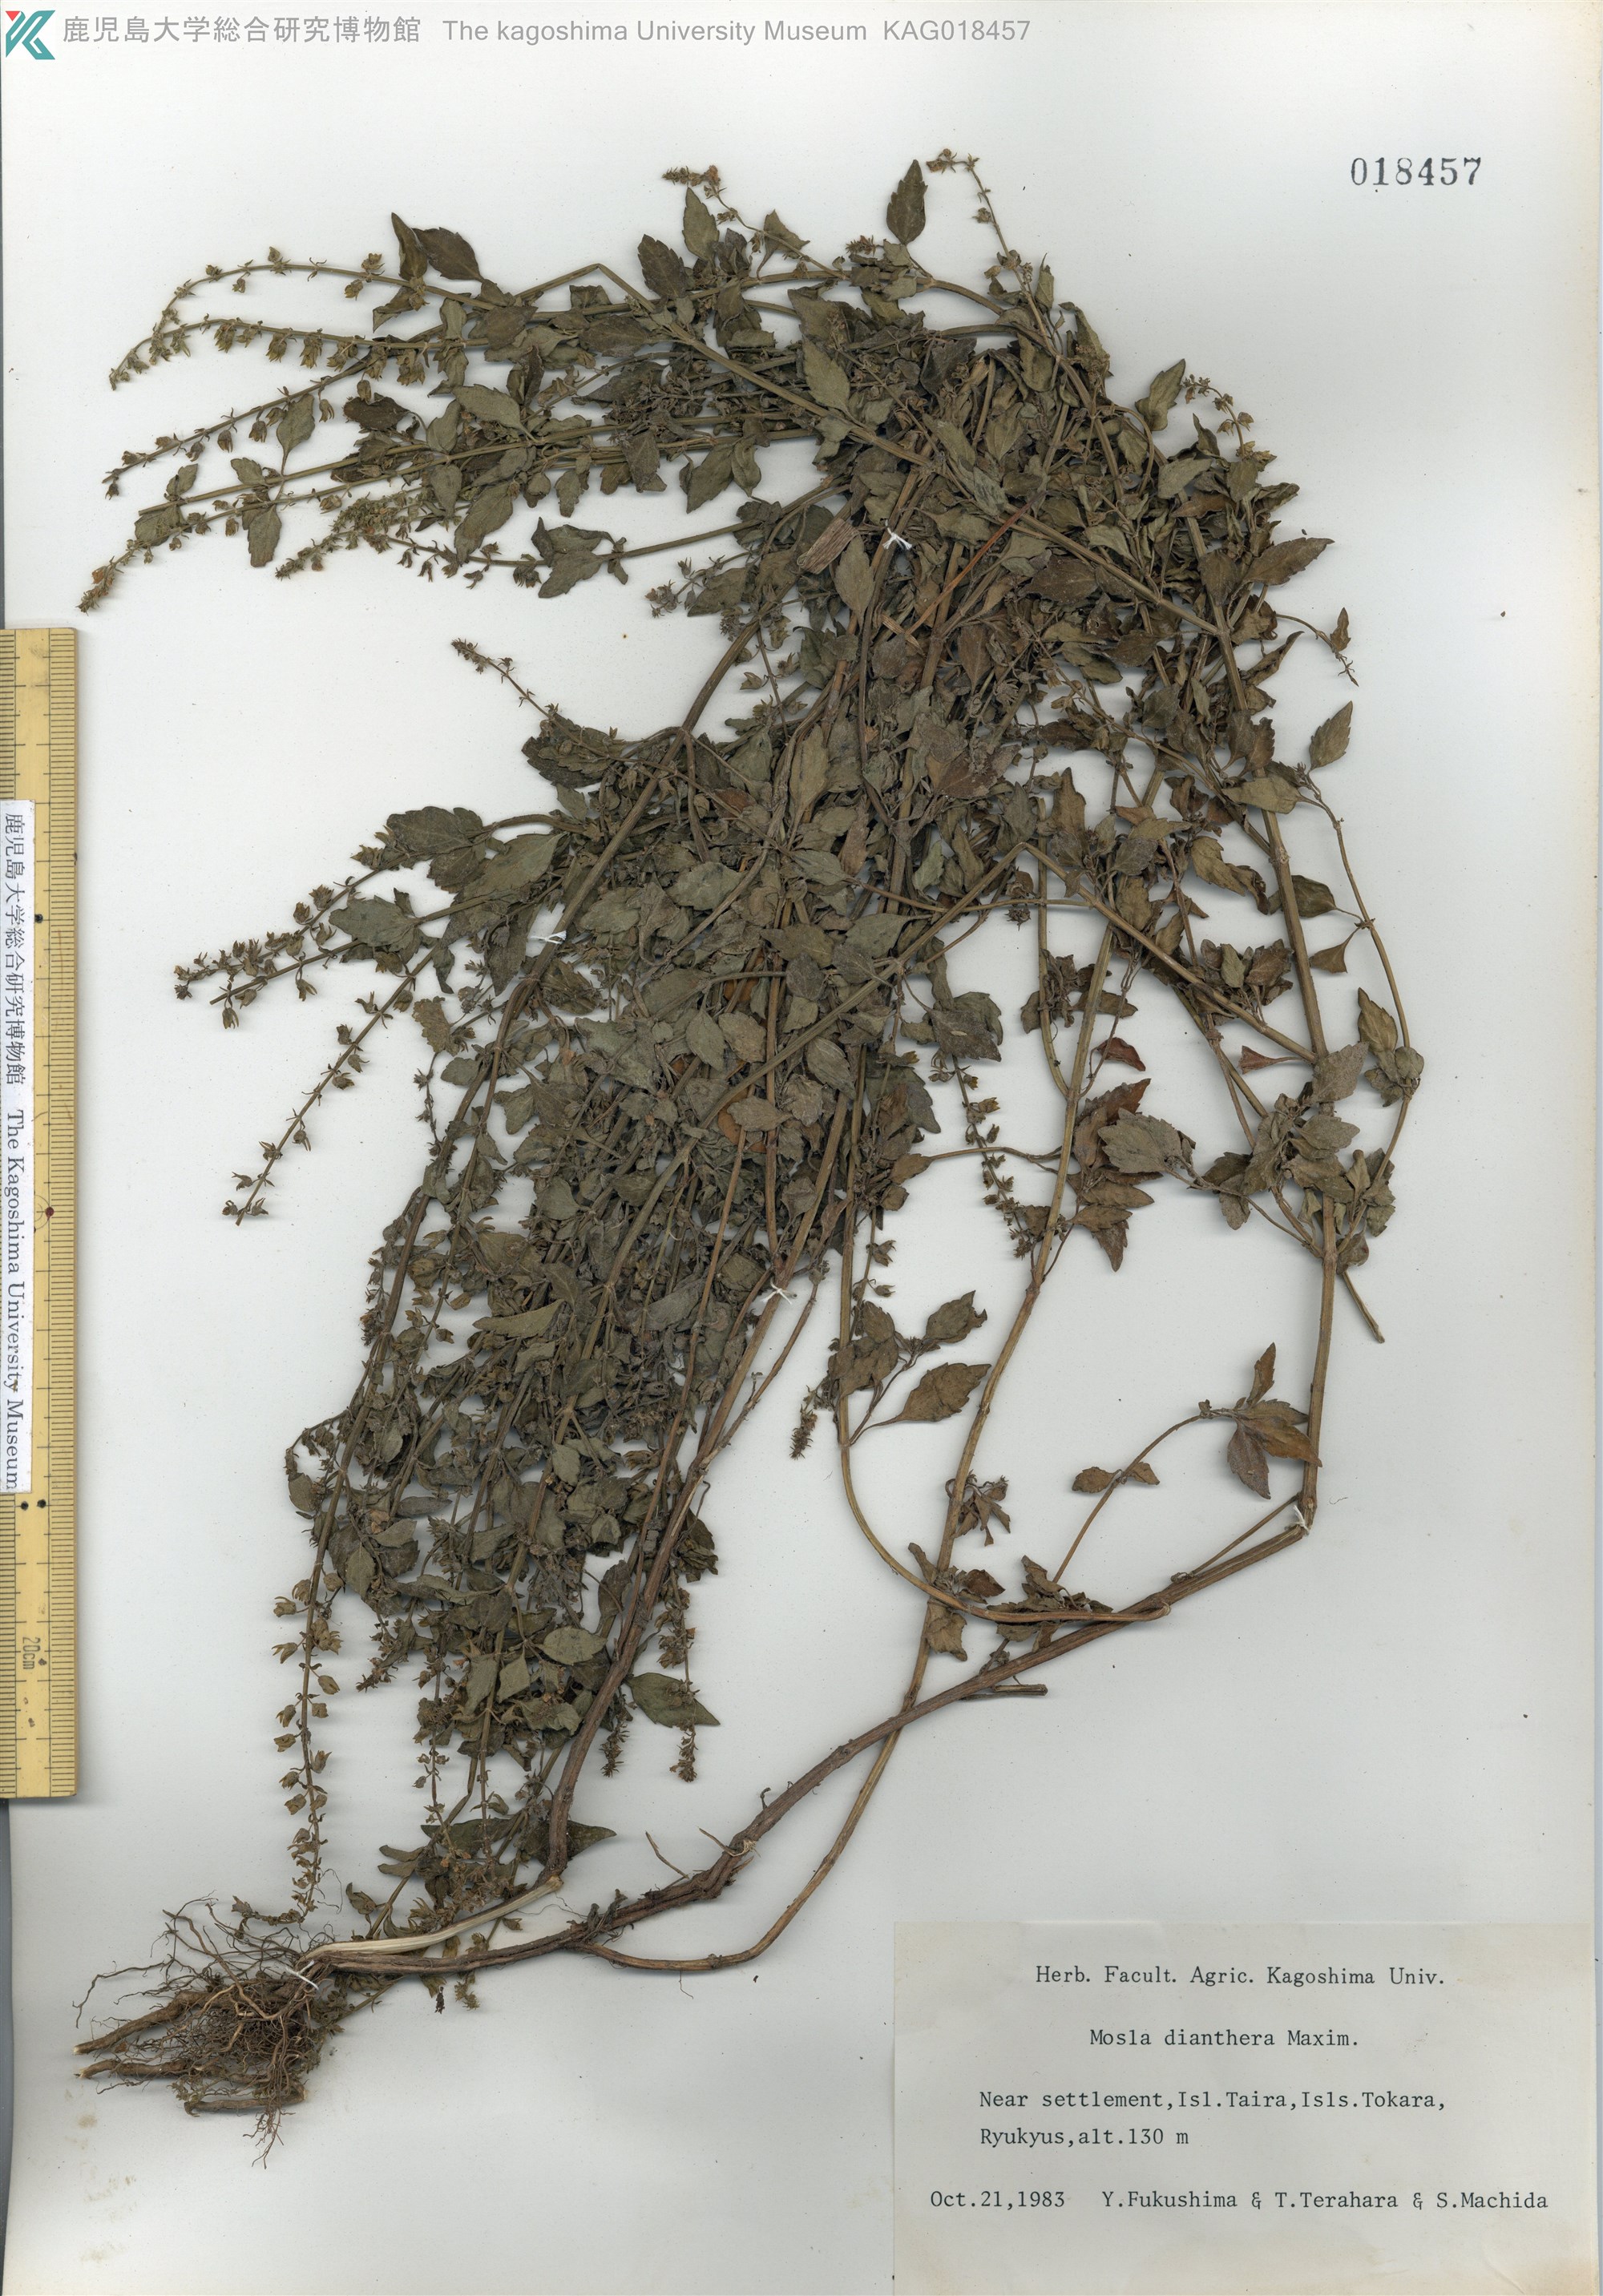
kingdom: Plantae
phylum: Tracheophyta
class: Magnoliopsida
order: Lamiales
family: Lamiaceae
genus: Mosla
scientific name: Mosla dianthera
